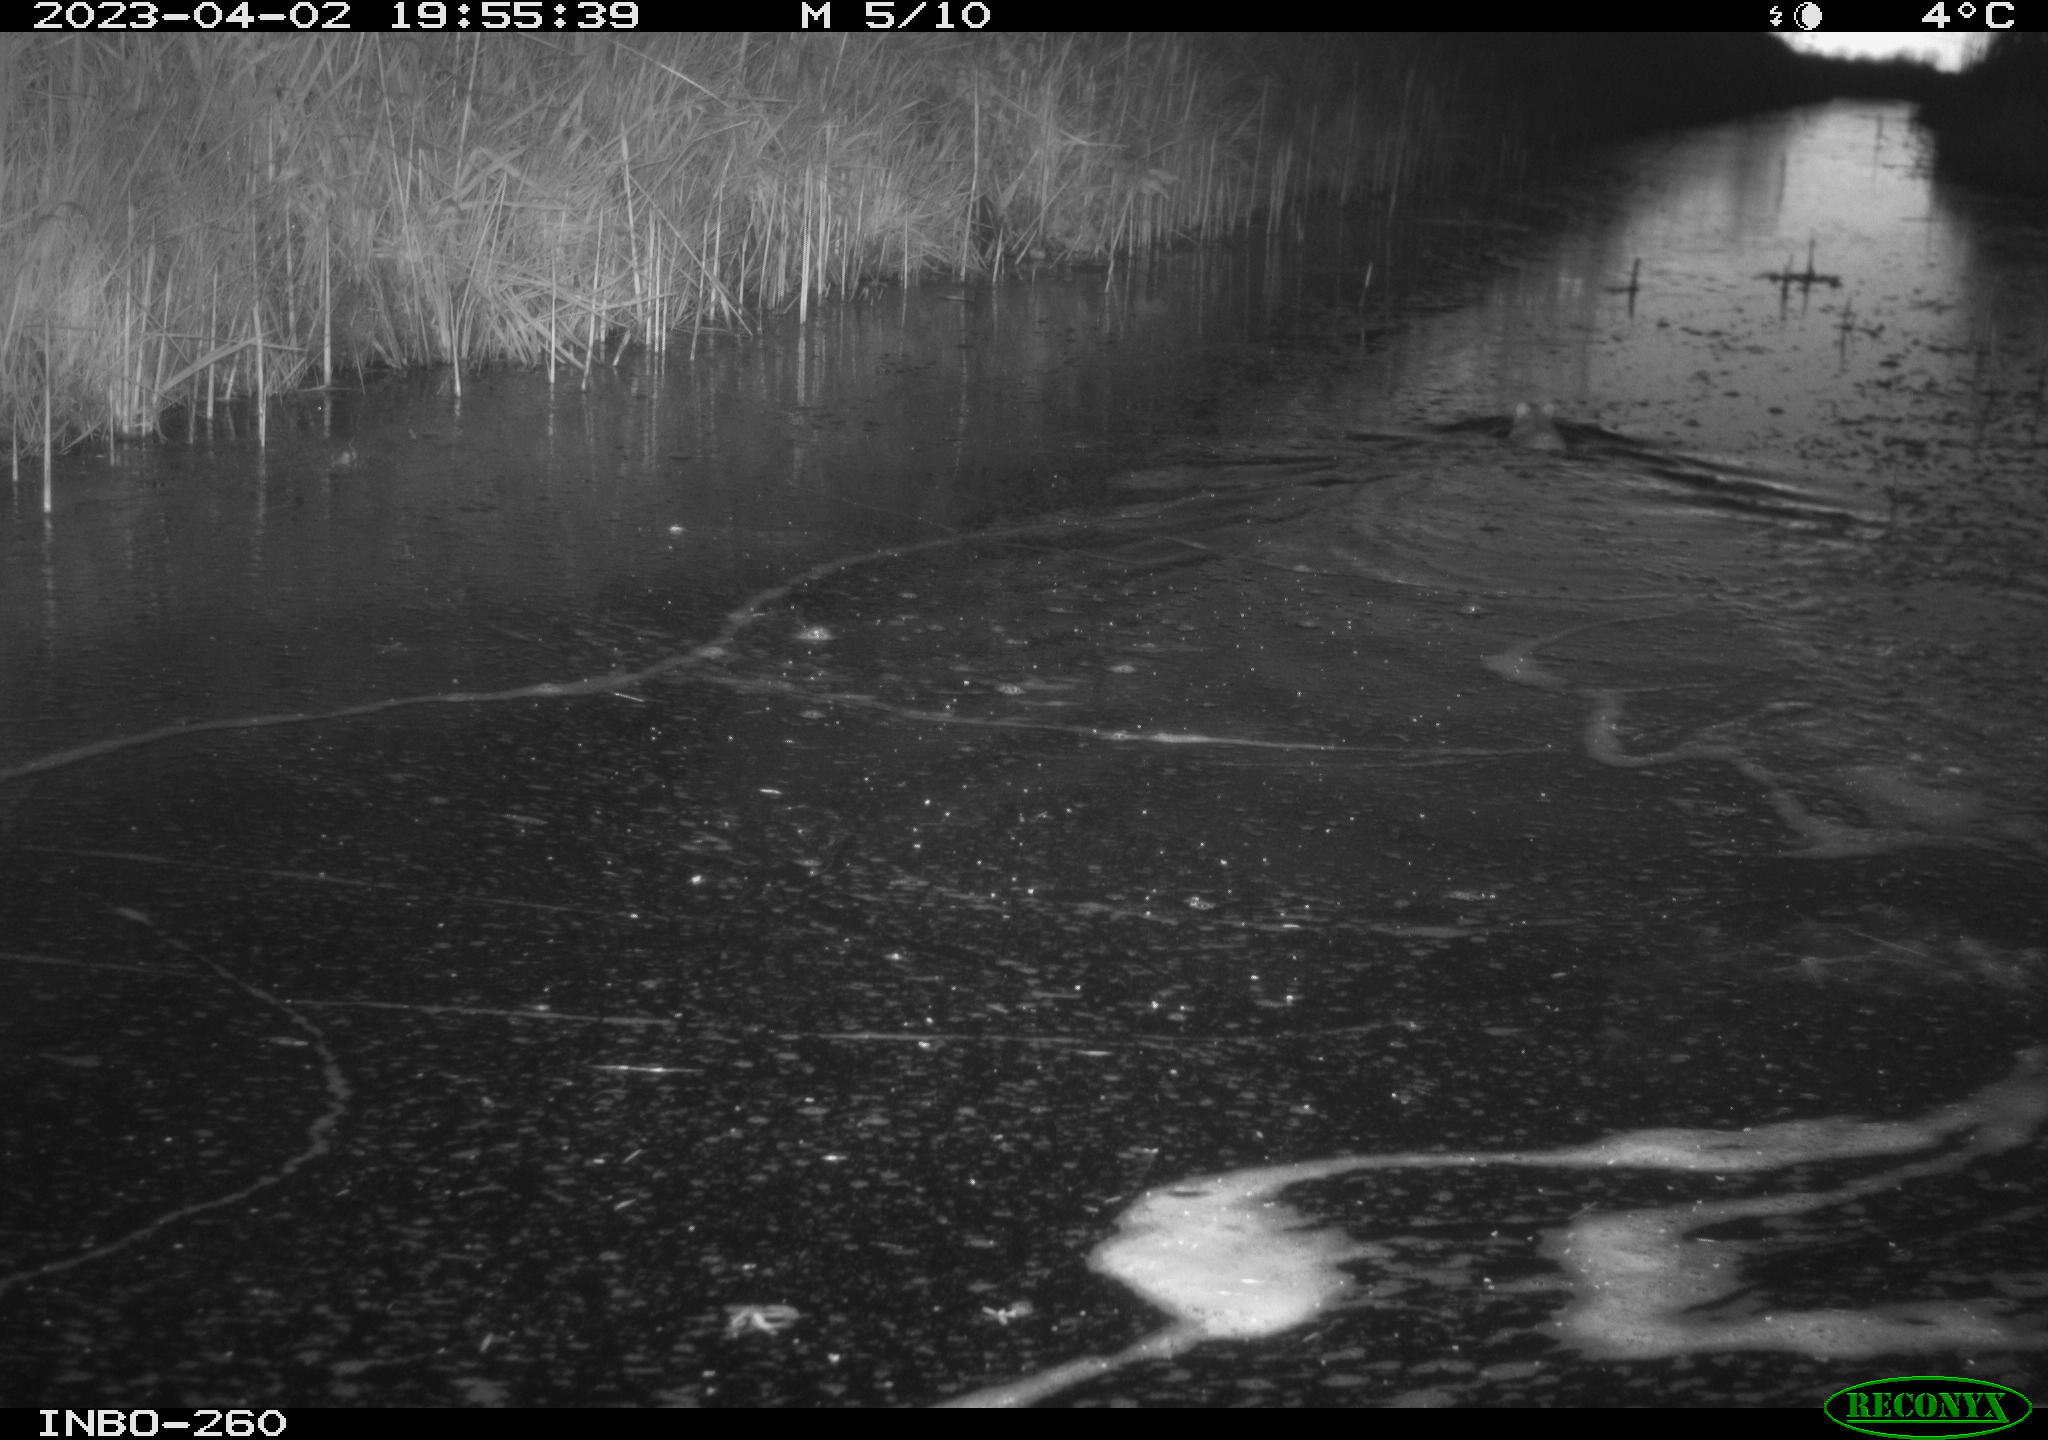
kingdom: Animalia
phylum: Chordata
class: Mammalia
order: Rodentia
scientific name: Rodentia
